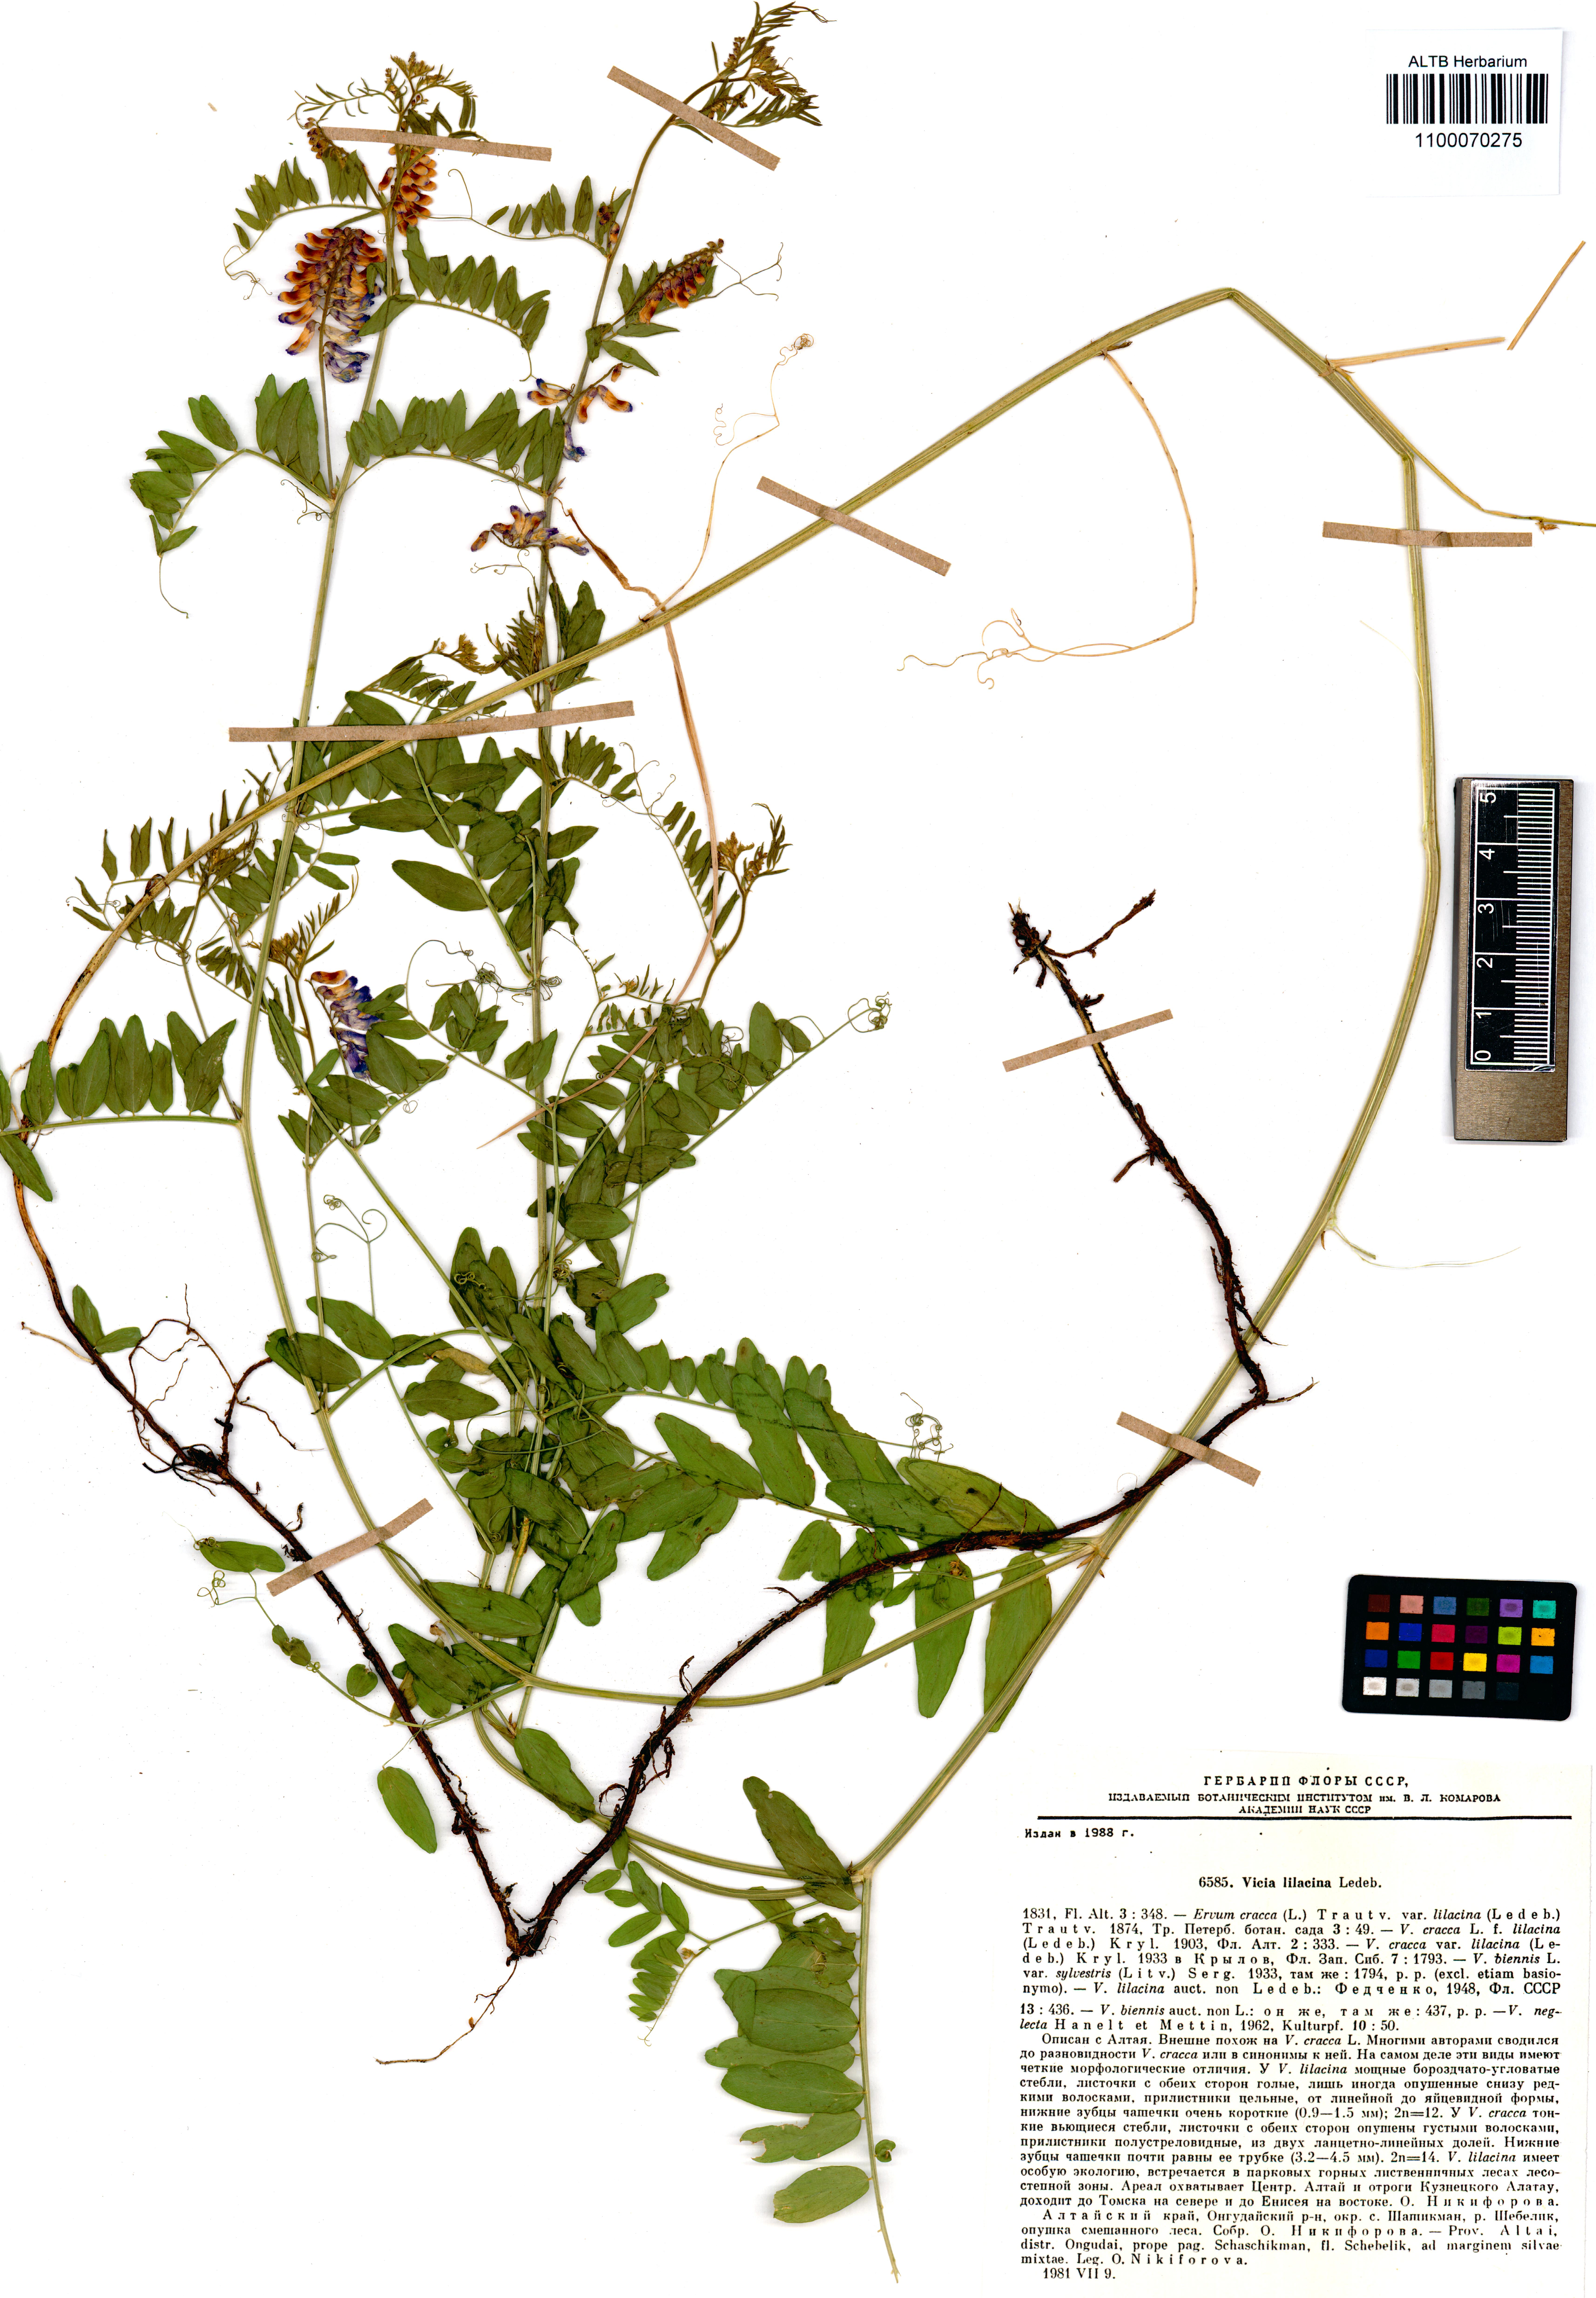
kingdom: Plantae
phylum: Tracheophyta
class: Magnoliopsida
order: Fabales
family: Fabaceae
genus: Vicia
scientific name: Vicia lilacina
